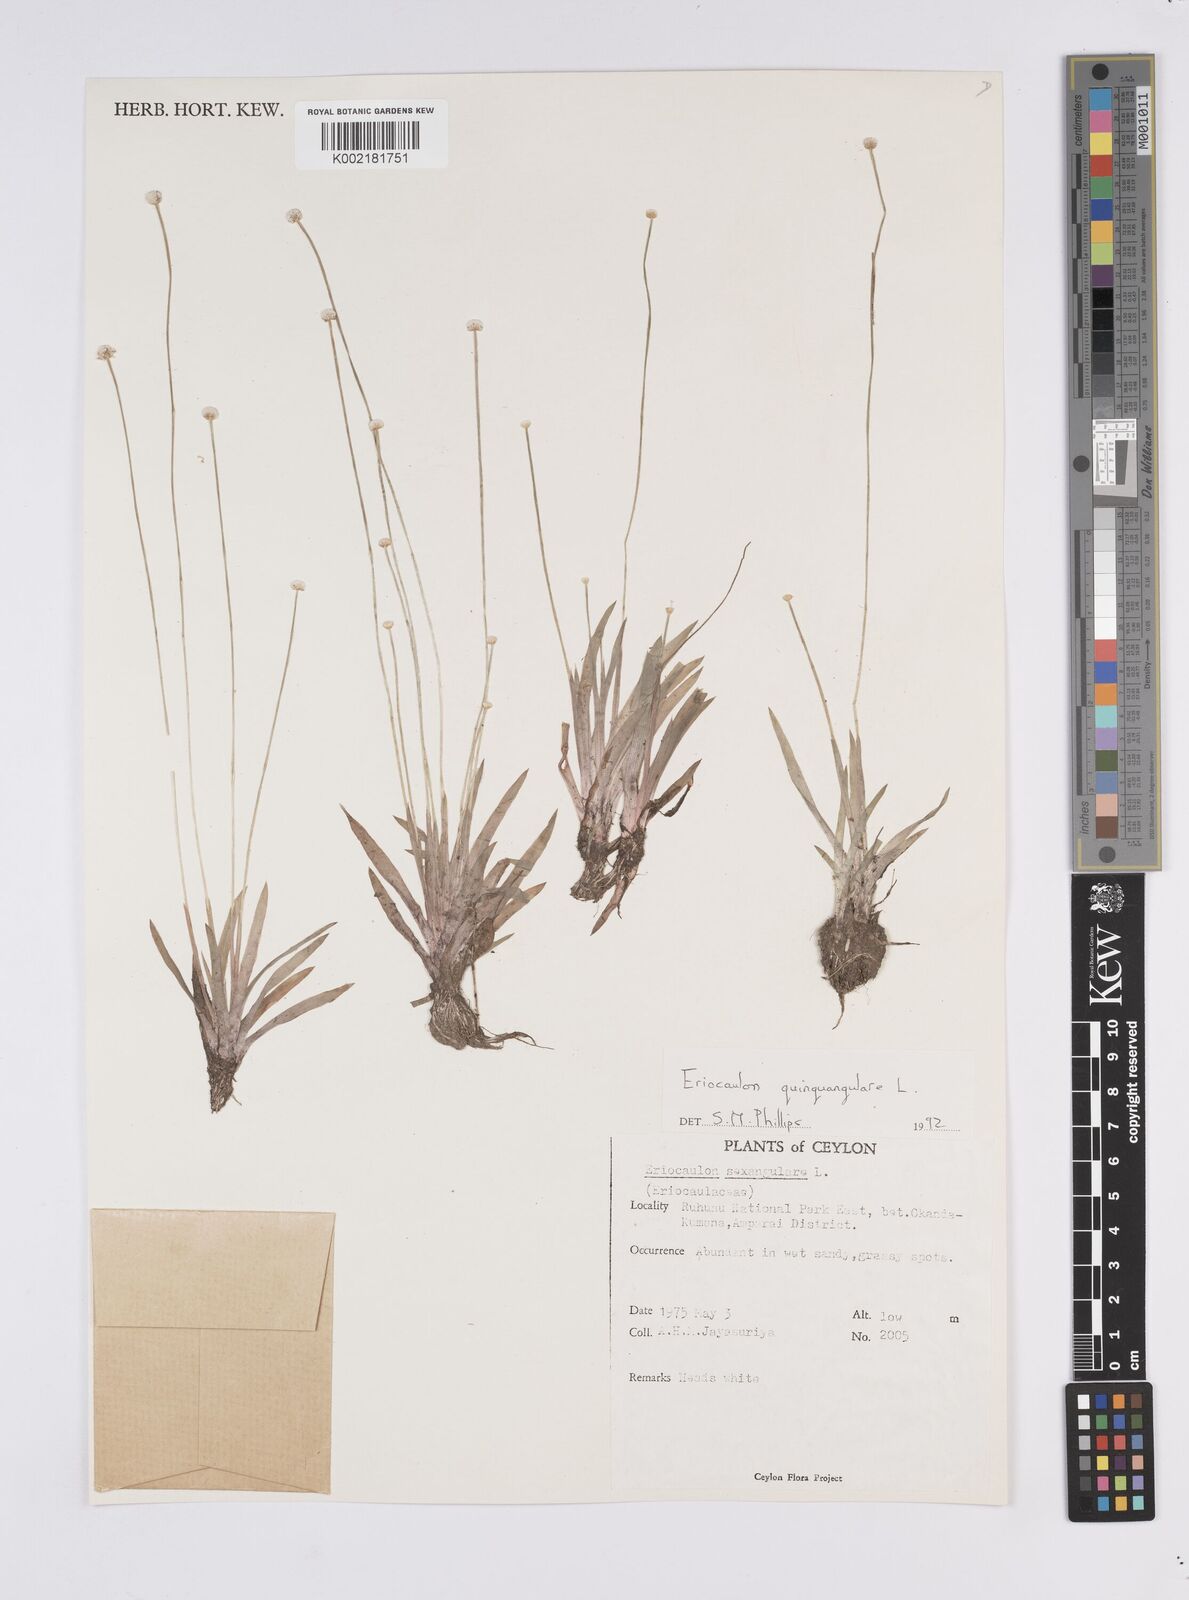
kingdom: Plantae
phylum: Tracheophyta
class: Liliopsida
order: Poales
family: Eriocaulaceae
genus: Eriocaulon
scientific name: Eriocaulon quinquangulare
